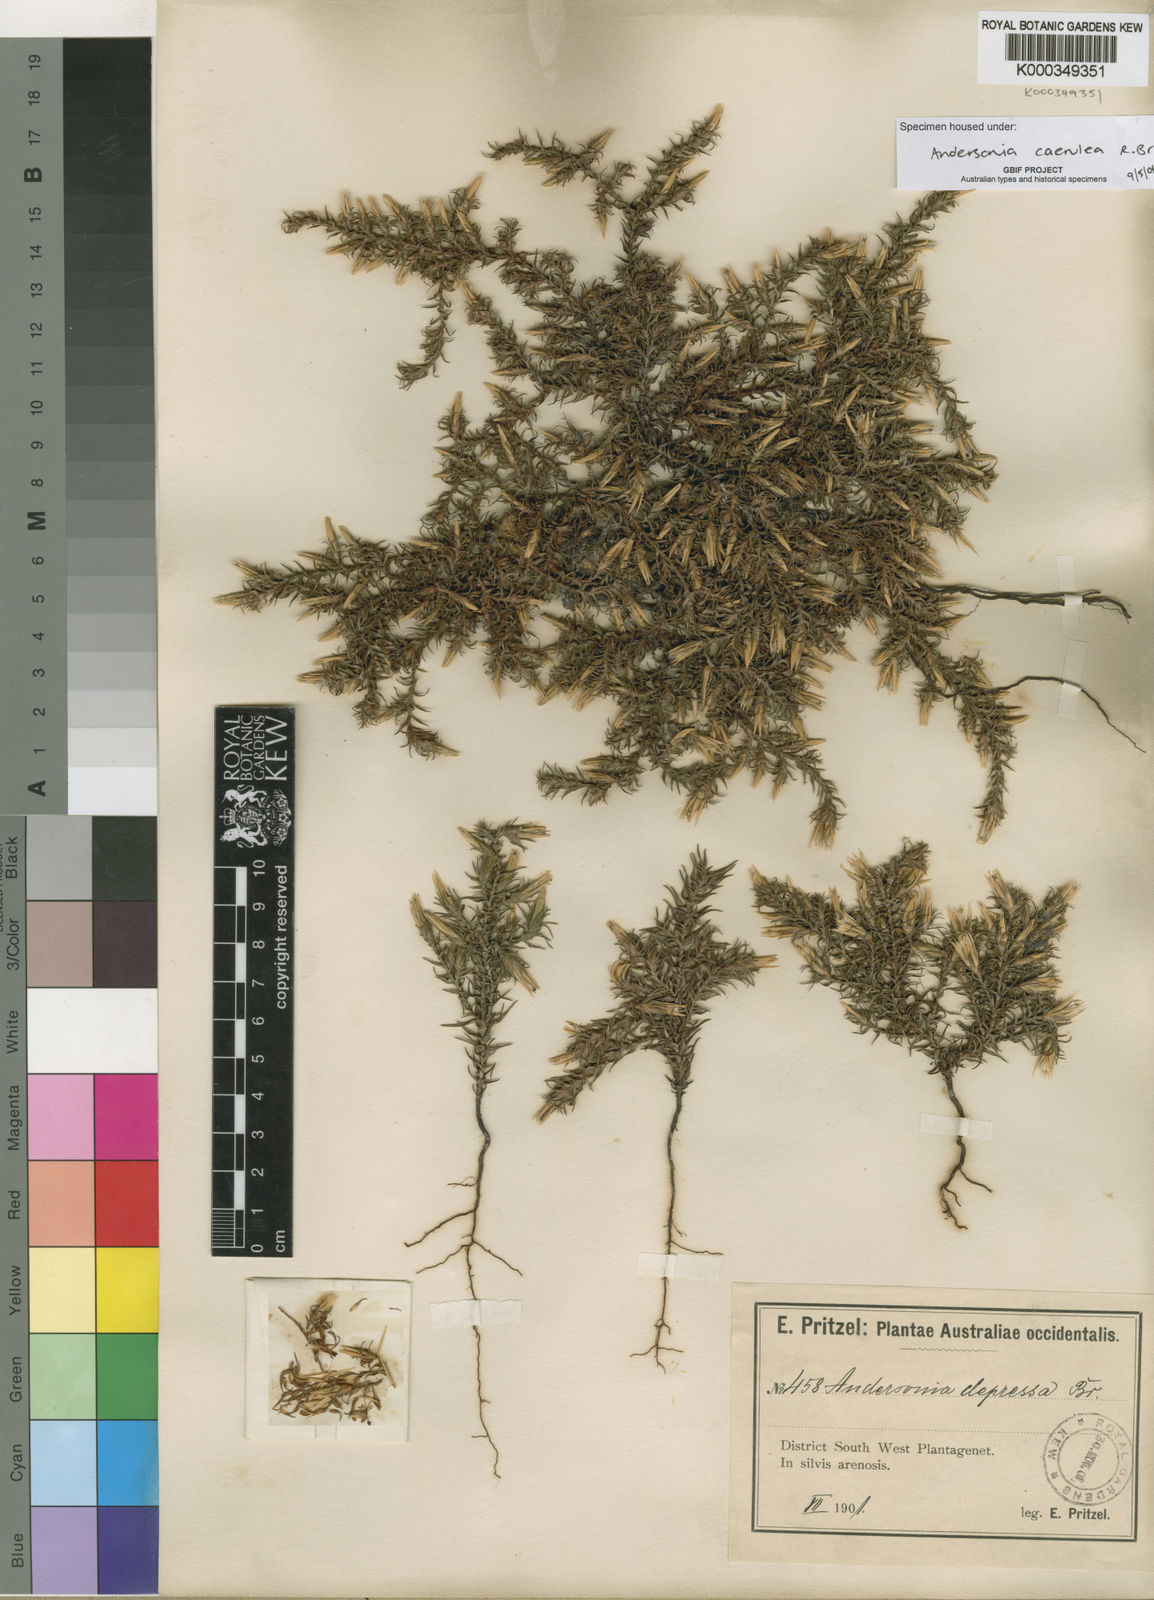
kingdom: Plantae
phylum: Tracheophyta
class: Magnoliopsida
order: Ericales
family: Ericaceae
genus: Andersonia
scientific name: Andersonia caerulea
